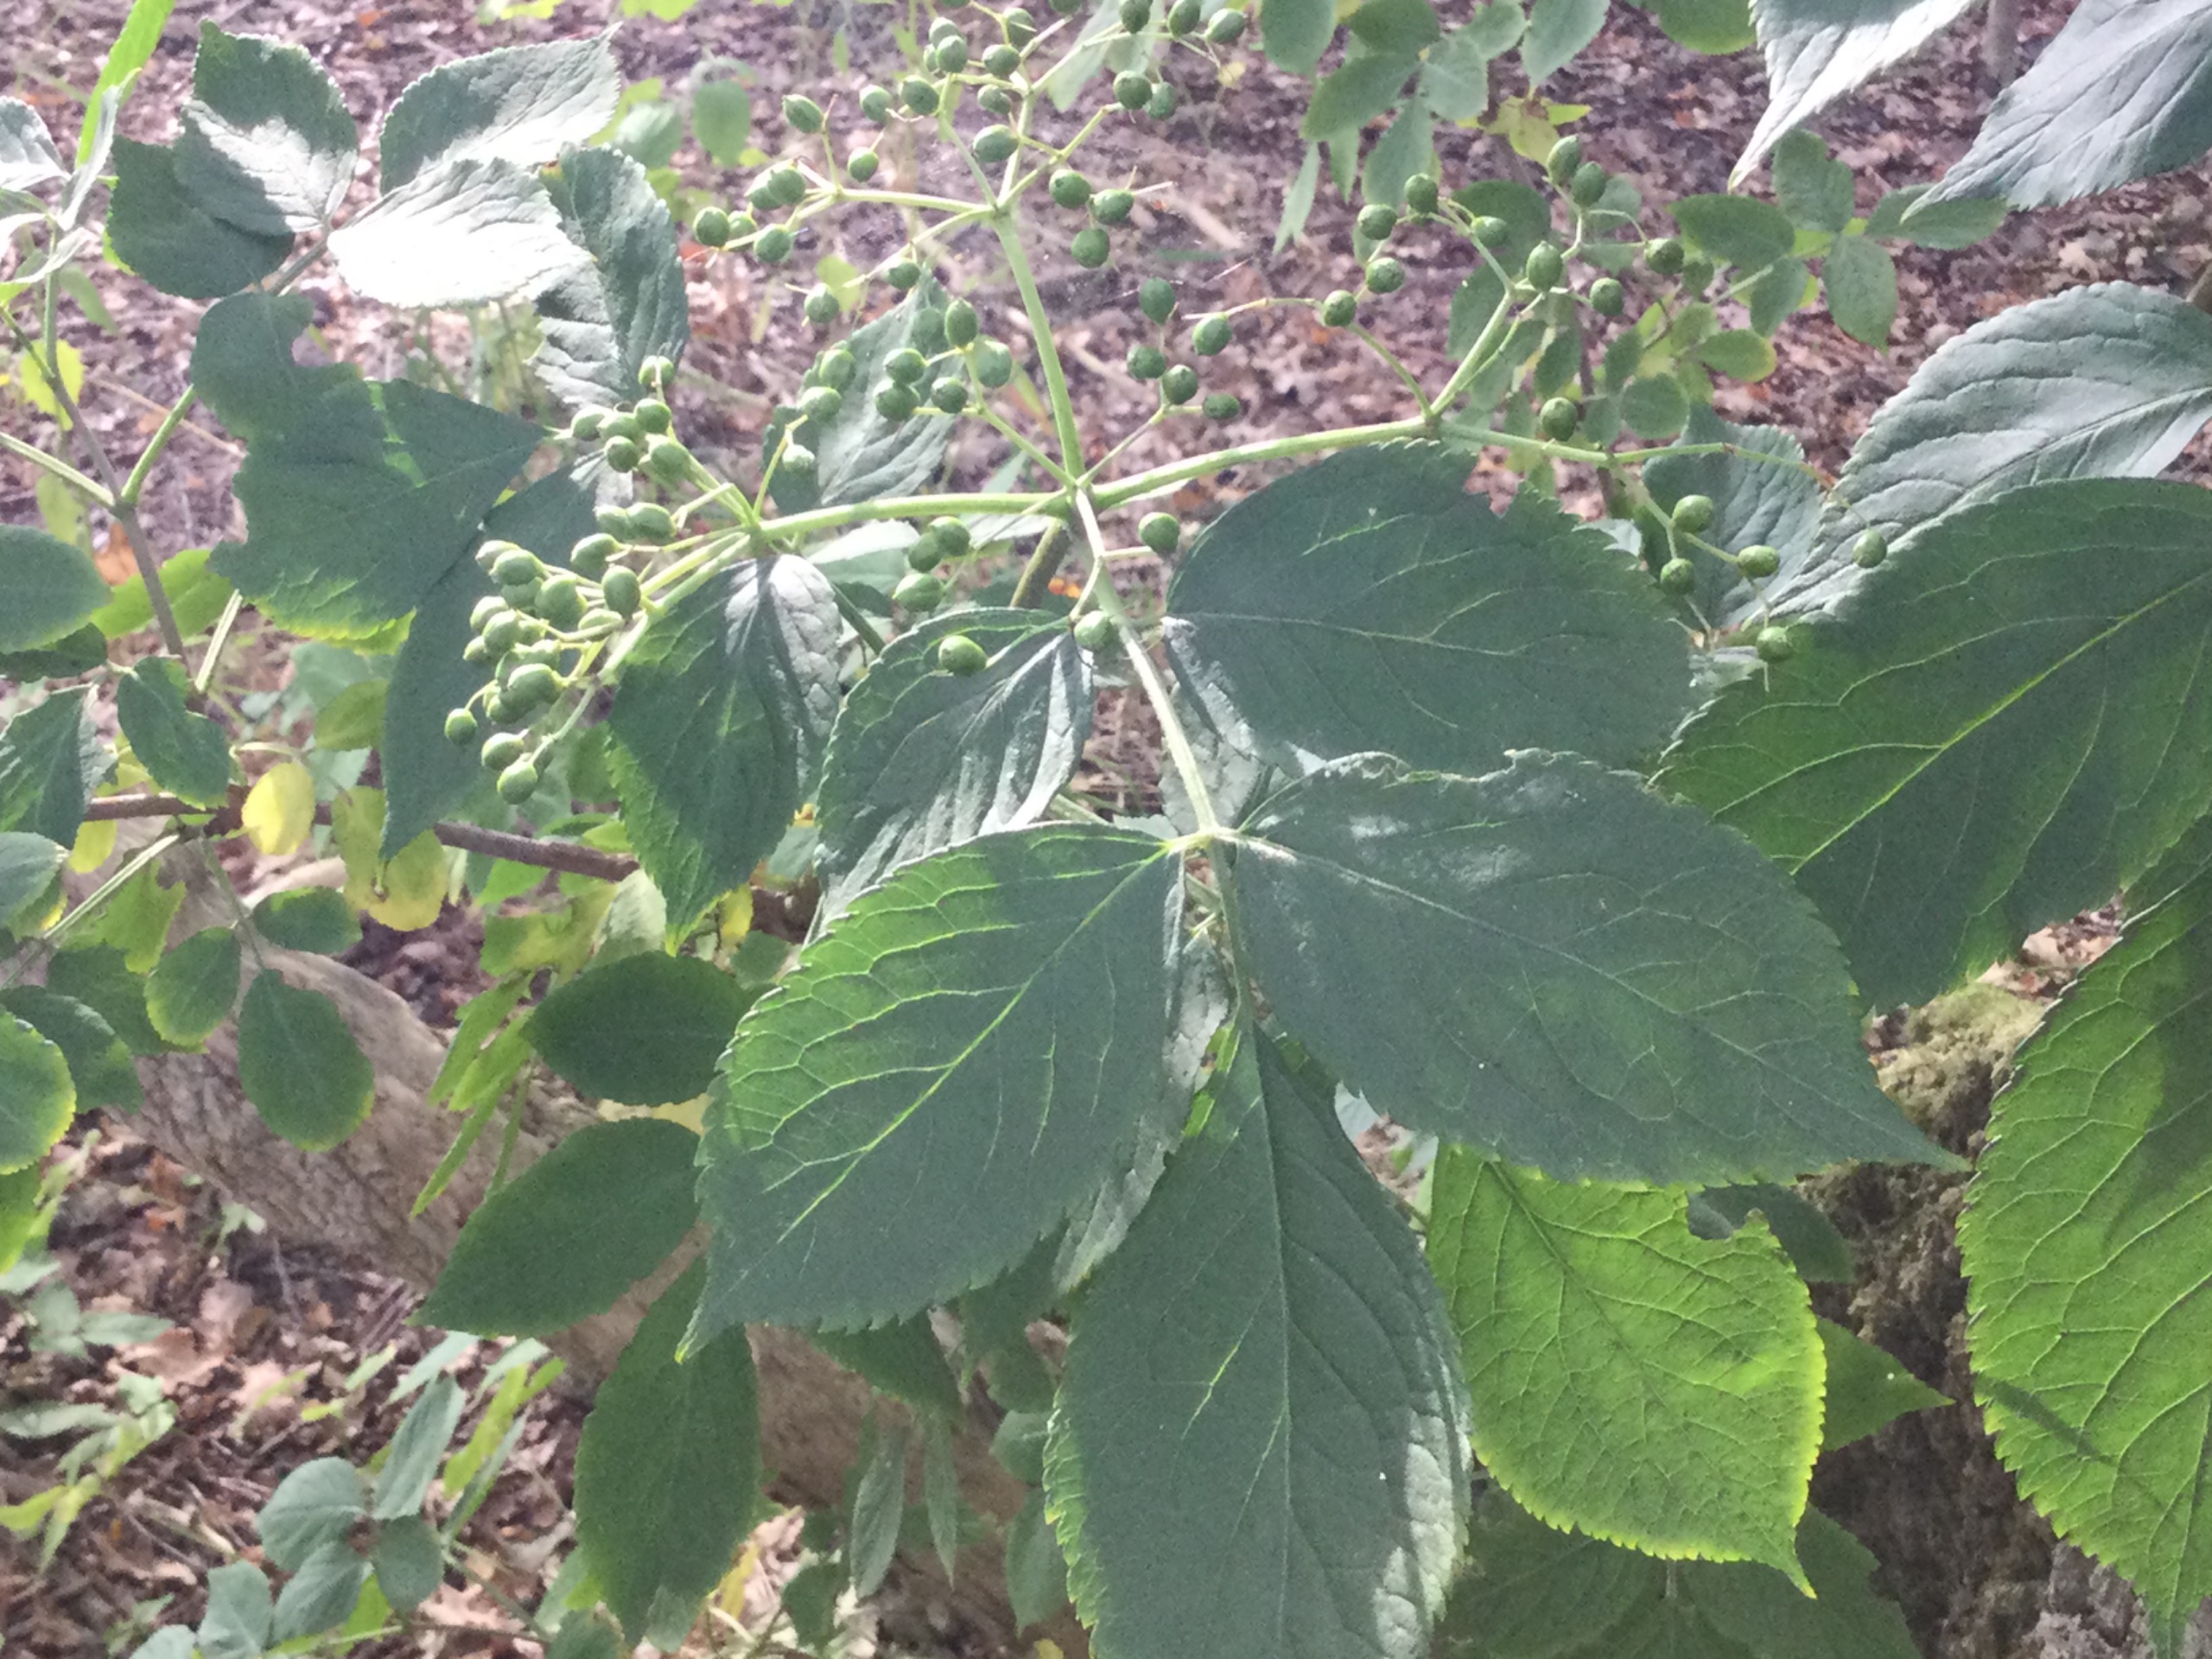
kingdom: Plantae
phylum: Tracheophyta
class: Magnoliopsida
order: Dipsacales
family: Viburnaceae
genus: Sambucus
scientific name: Sambucus nigra
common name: Almindelig hyld
